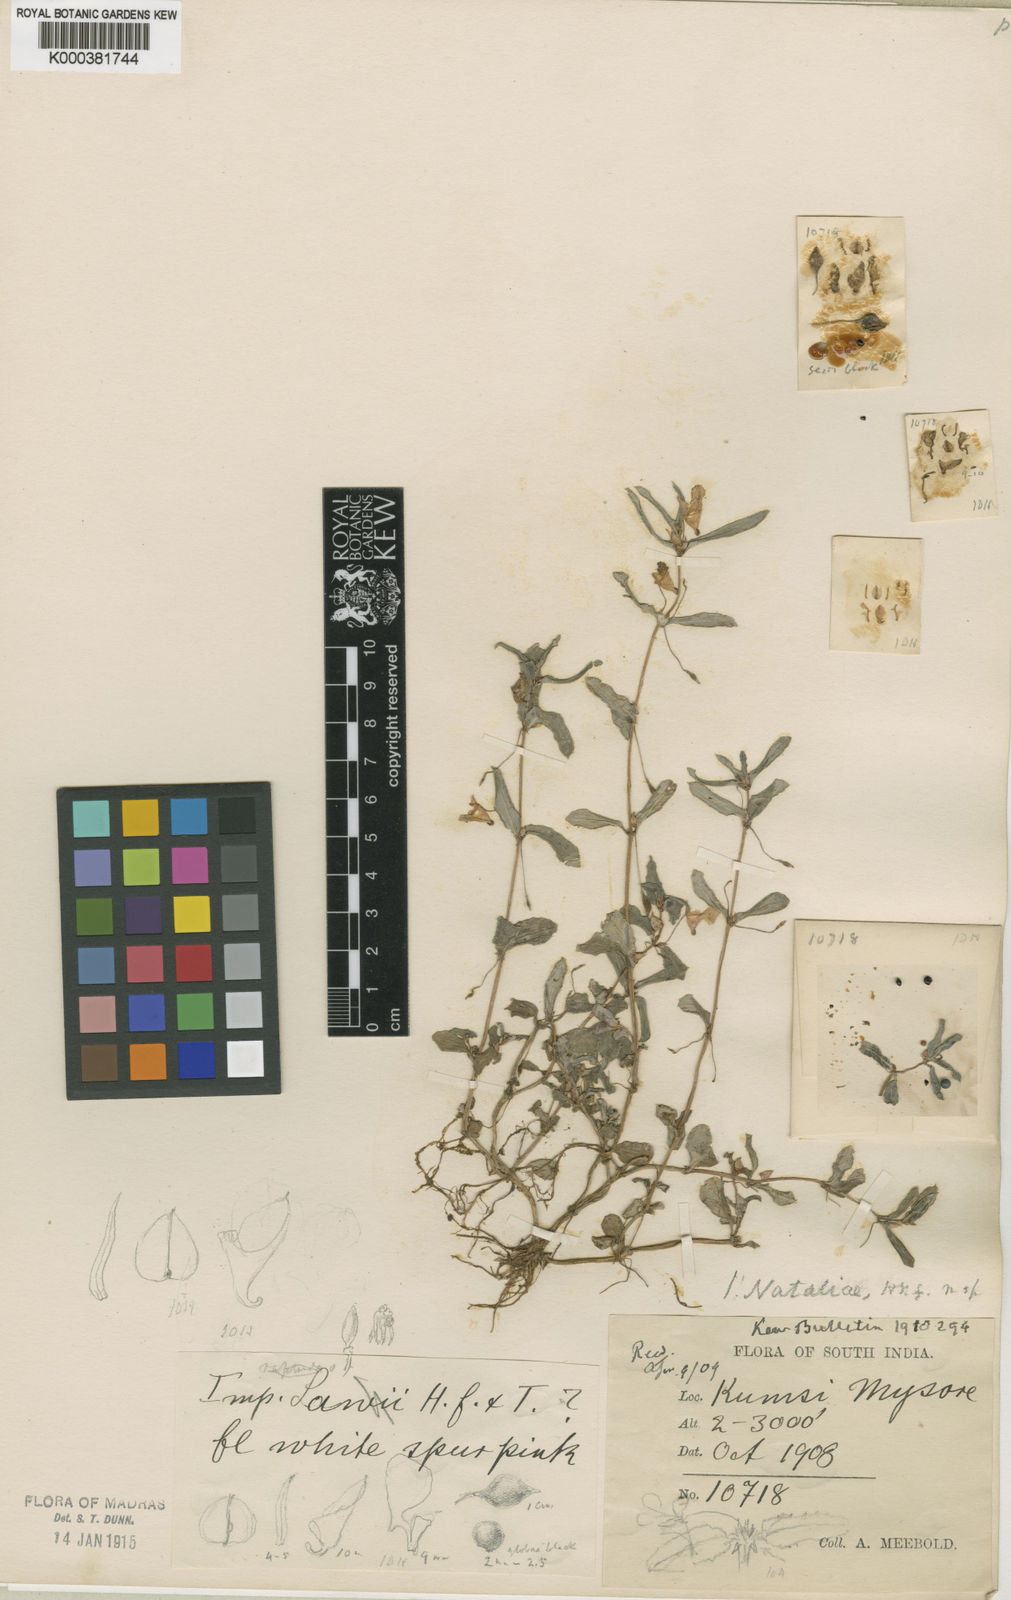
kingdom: Plantae
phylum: Tracheophyta
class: Magnoliopsida
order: Ericales
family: Balsaminaceae
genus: Impatiens
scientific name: Impatiens rupicola
